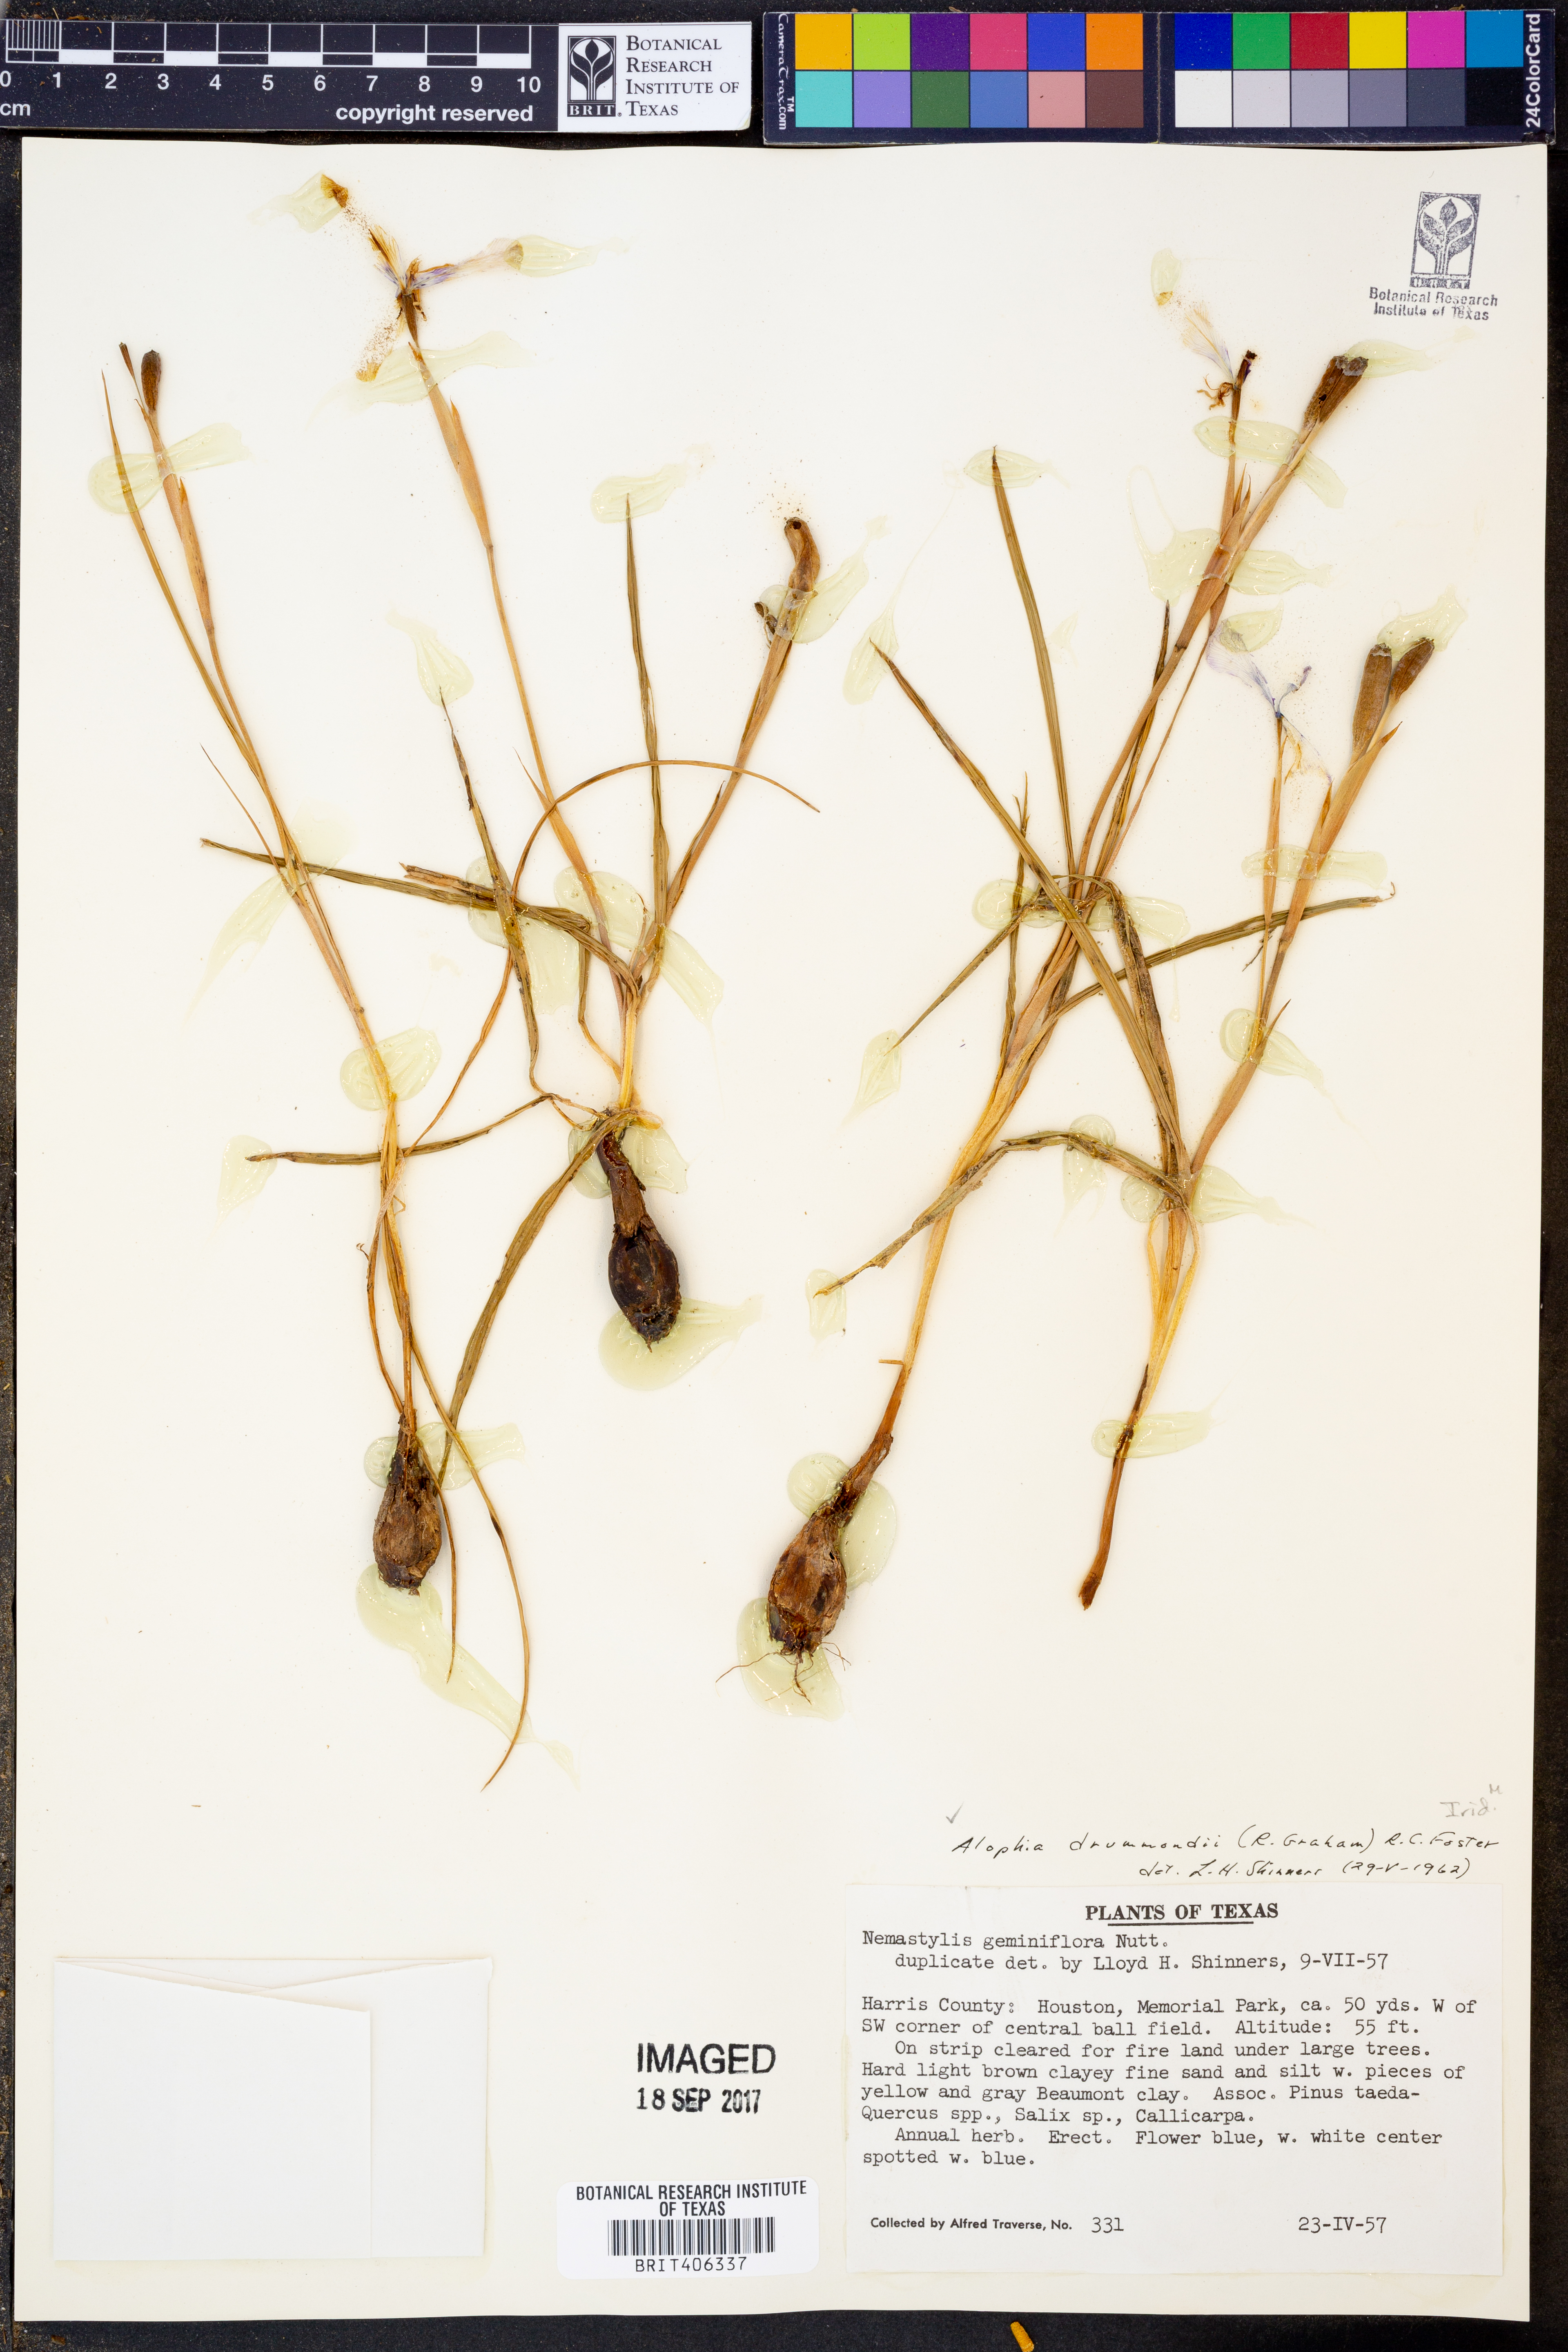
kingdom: Plantae
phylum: Tracheophyta
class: Liliopsida
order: Asparagales
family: Iridaceae
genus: Alophia
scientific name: Alophia drummondii
